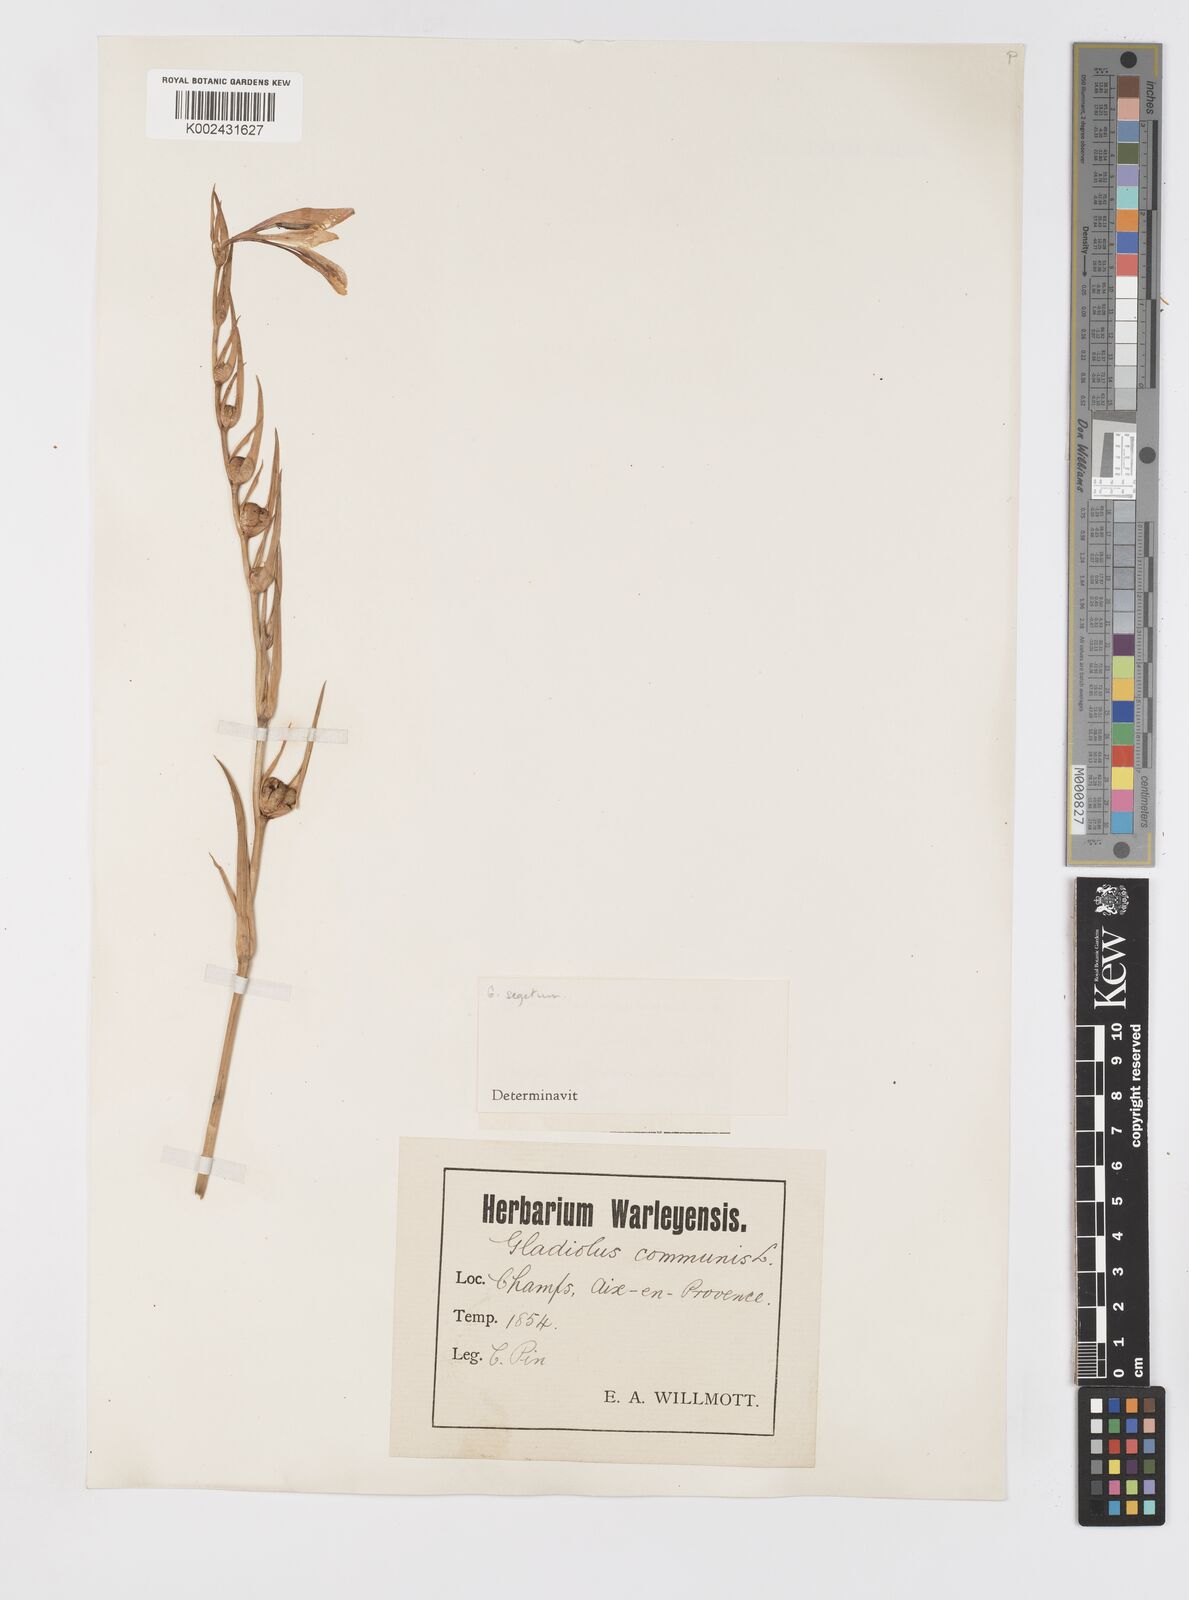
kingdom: Plantae
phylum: Tracheophyta
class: Liliopsida
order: Asparagales
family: Iridaceae
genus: Gladiolus
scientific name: Gladiolus communis
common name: Eastern gladiolus
